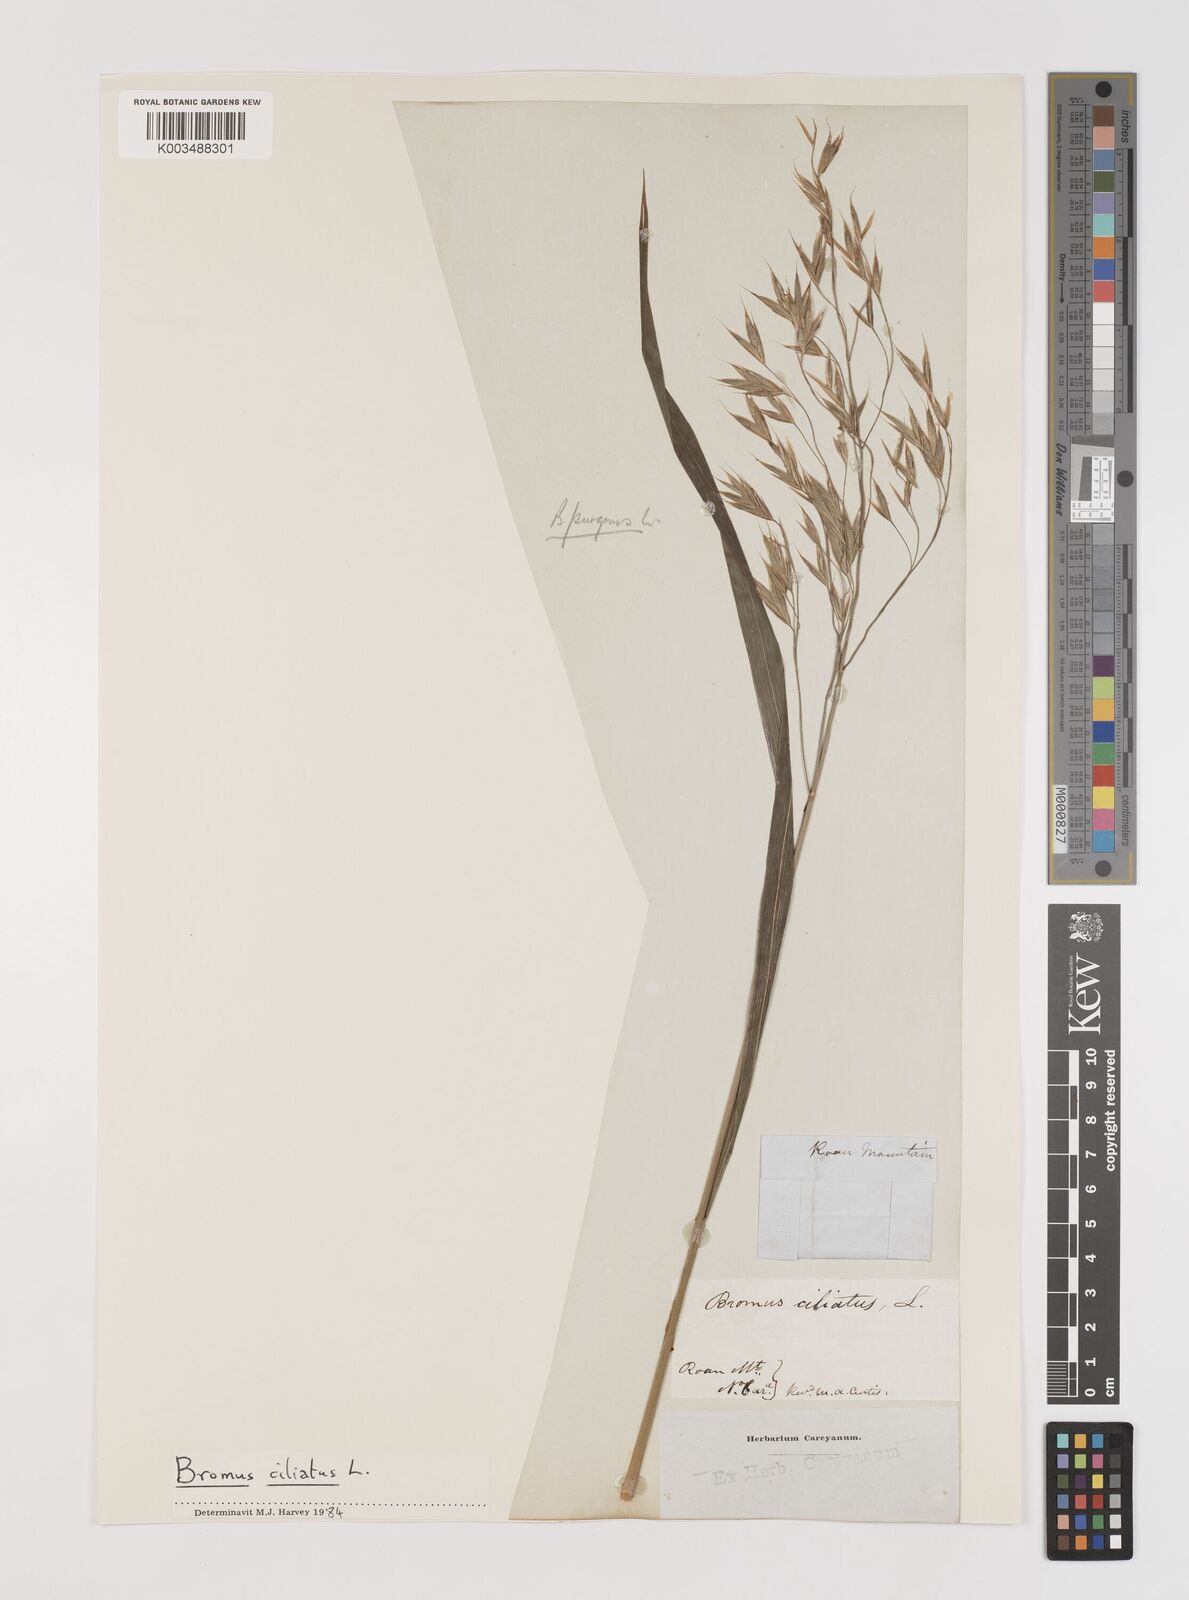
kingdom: Plantae
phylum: Tracheophyta
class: Liliopsida
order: Poales
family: Poaceae
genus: Bromus
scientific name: Bromus pubescens
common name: Hairy wood brome grass
